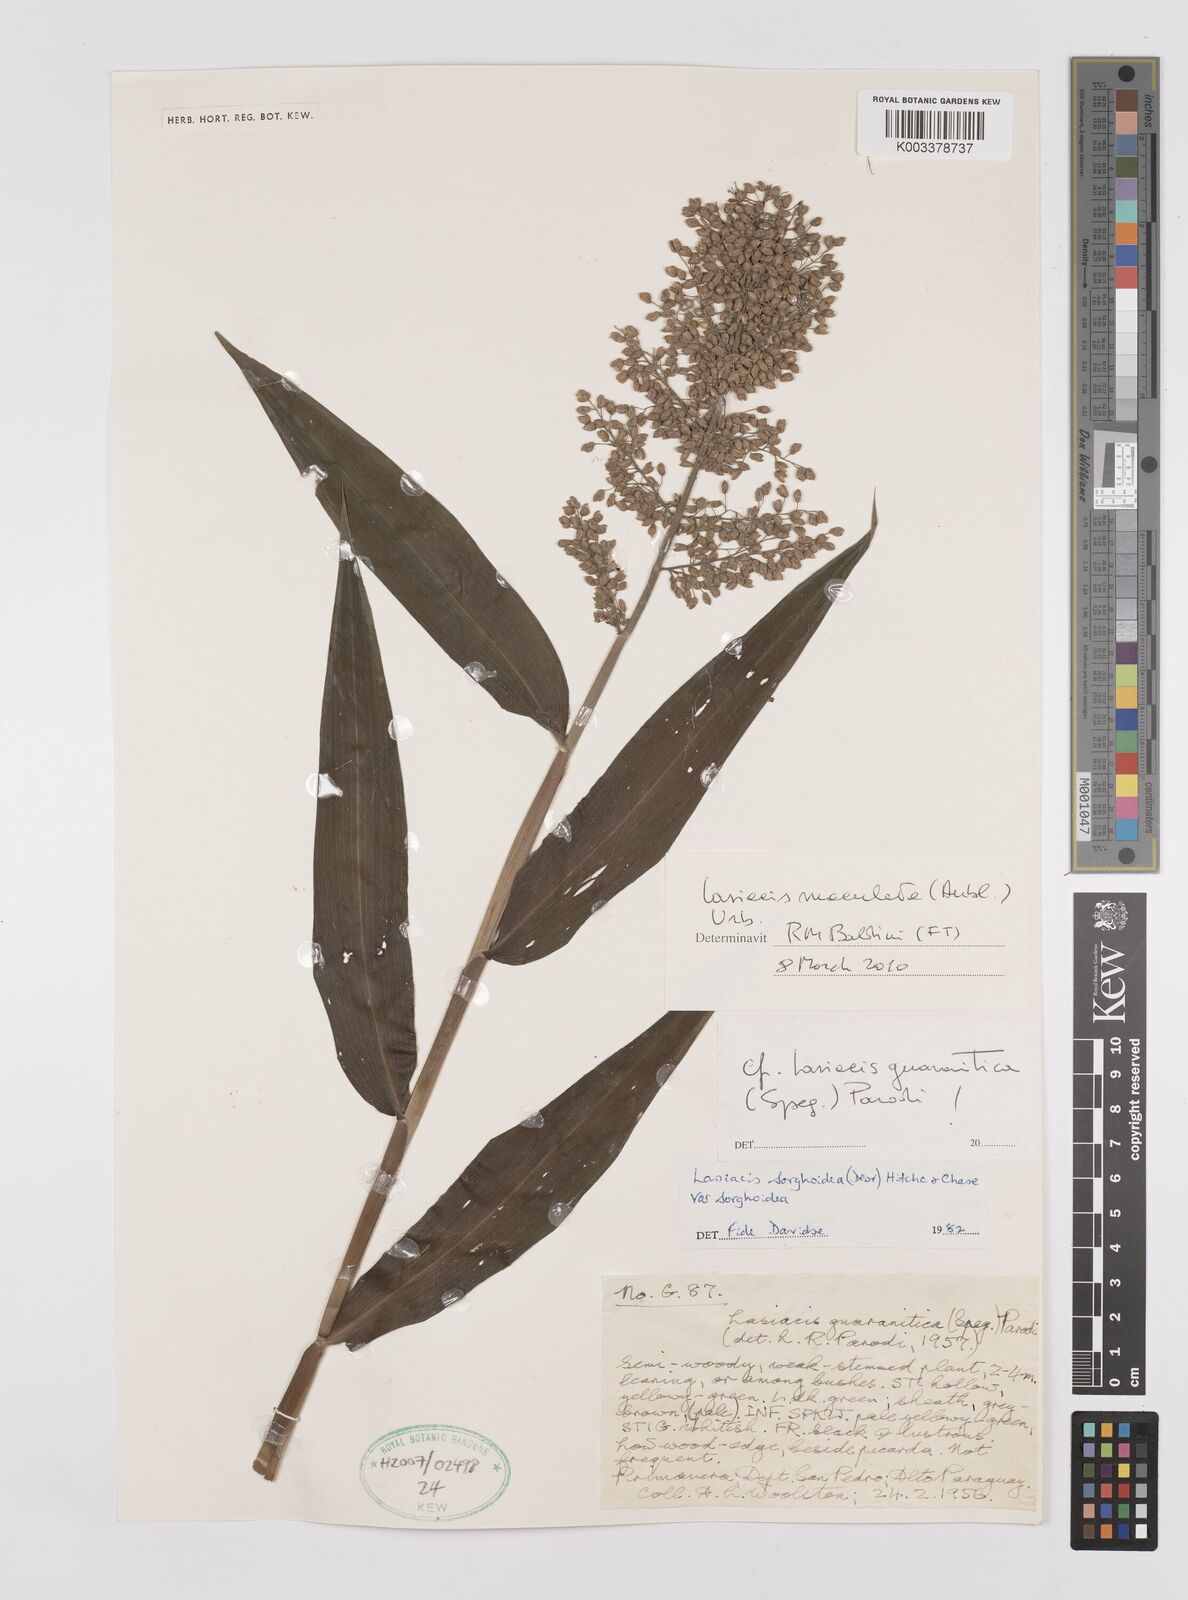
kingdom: Plantae
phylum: Tracheophyta
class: Liliopsida
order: Poales
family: Poaceae
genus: Lasiacis
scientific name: Lasiacis maculata
